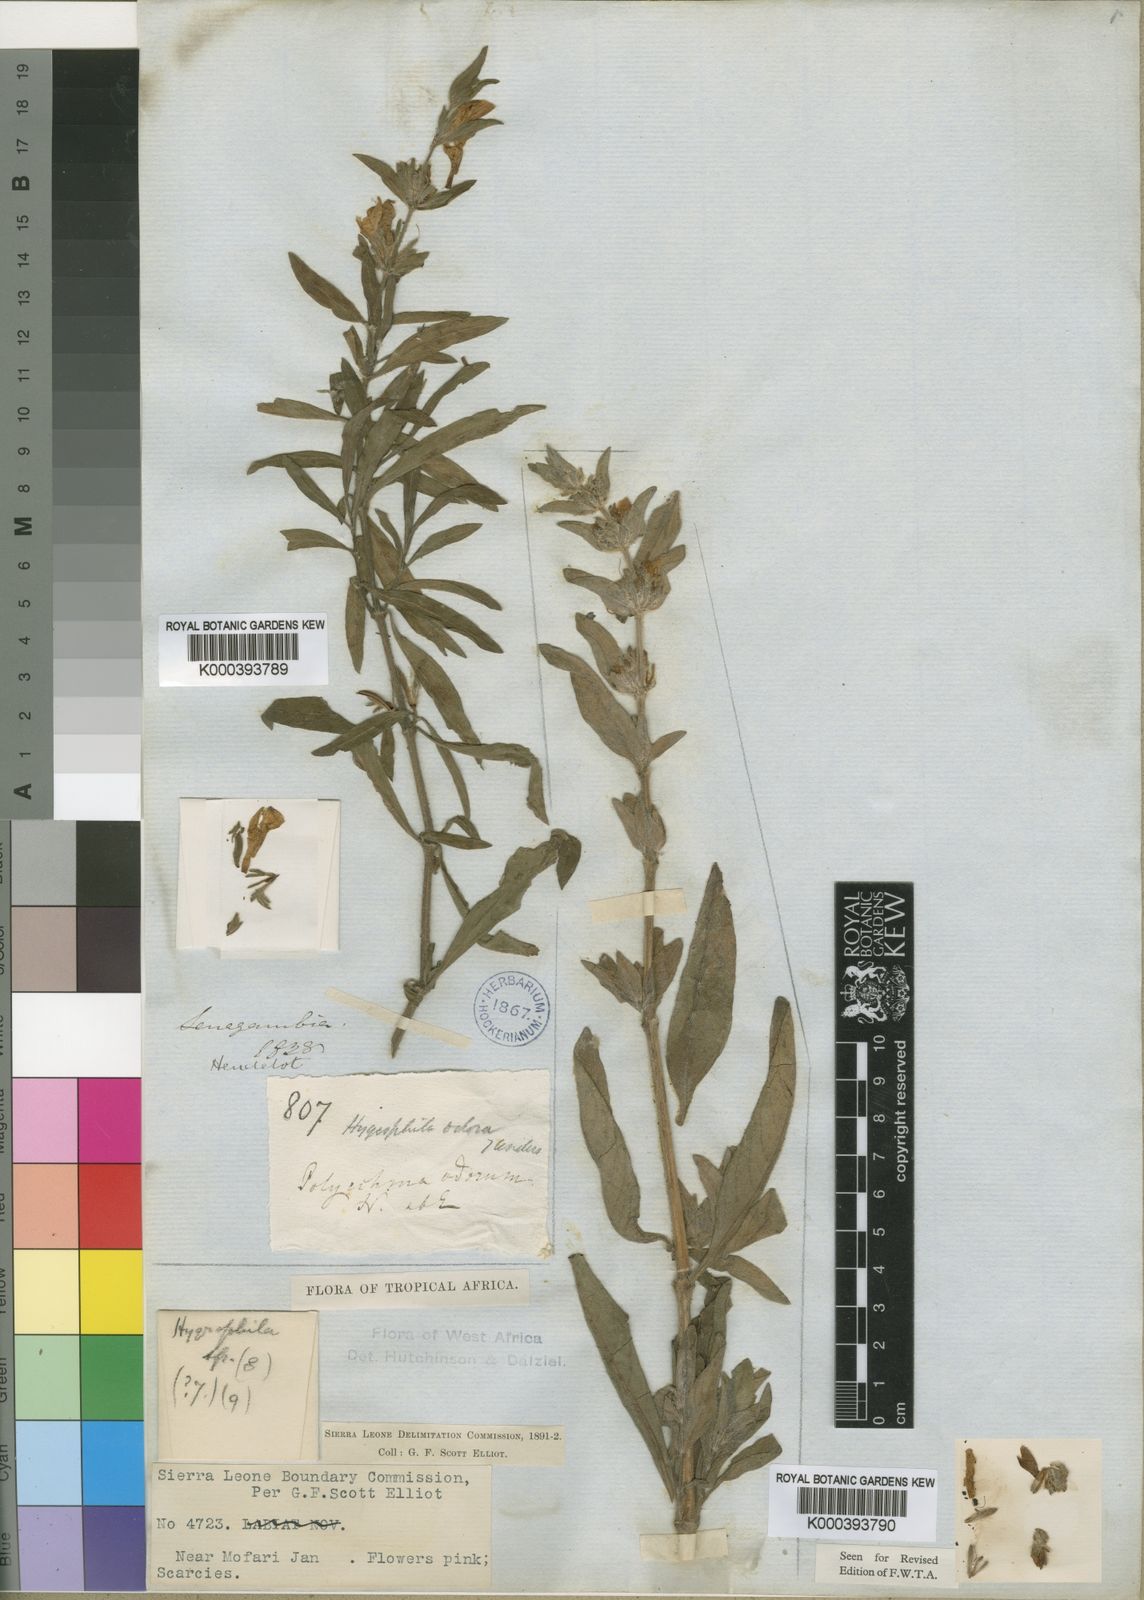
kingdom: Plantae
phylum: Tracheophyta
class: Magnoliopsida
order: Lamiales
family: Acanthaceae
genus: Hygrophila
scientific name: Hygrophila odora
